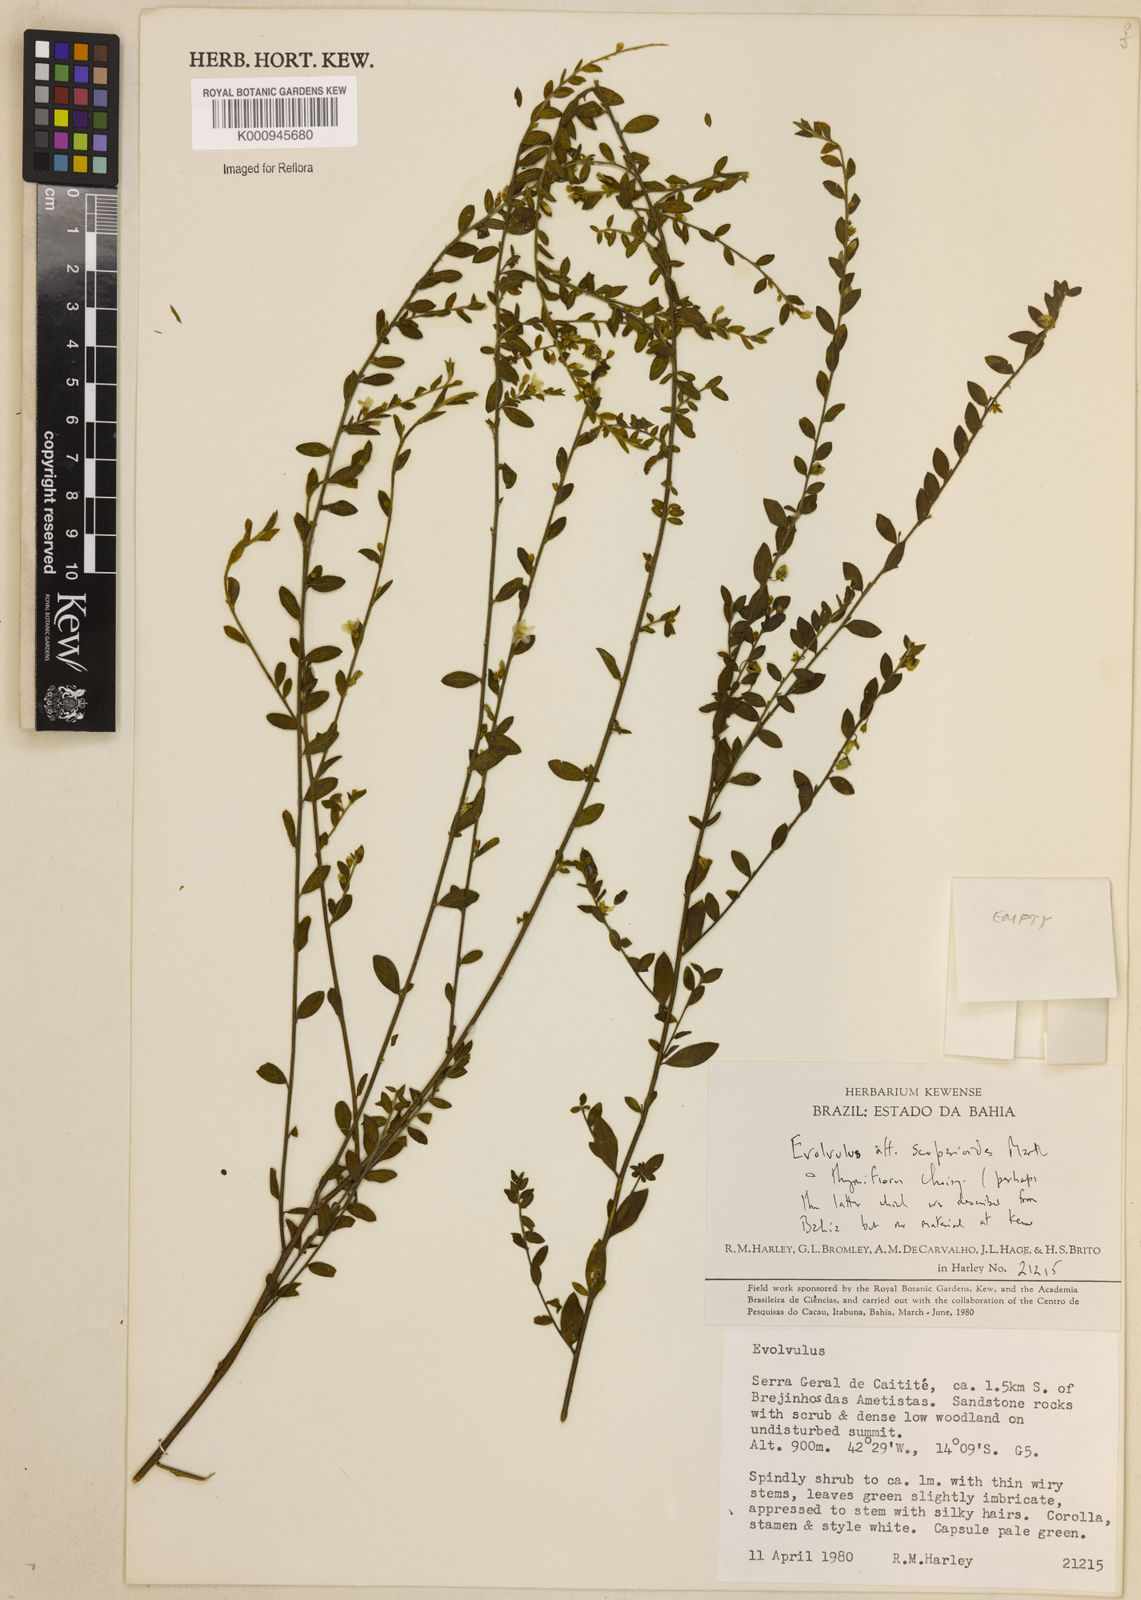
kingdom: Plantae
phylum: Tracheophyta
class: Magnoliopsida
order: Solanales
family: Convolvulaceae
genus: Evolvulus
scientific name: Evolvulus scoparioides
